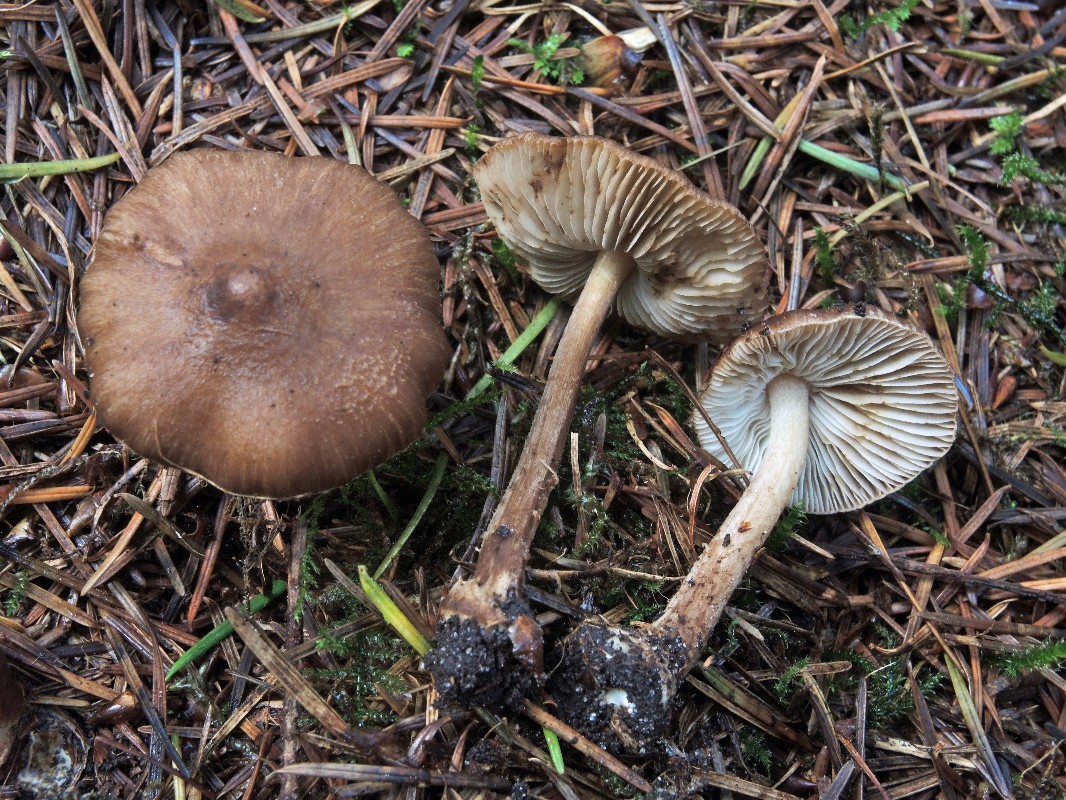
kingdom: Fungi
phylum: Basidiomycota
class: Agaricomycetes
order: Agaricales
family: Inocybaceae
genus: Inocybe
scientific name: Inocybe napipes
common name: roeknoldet trævlhat
